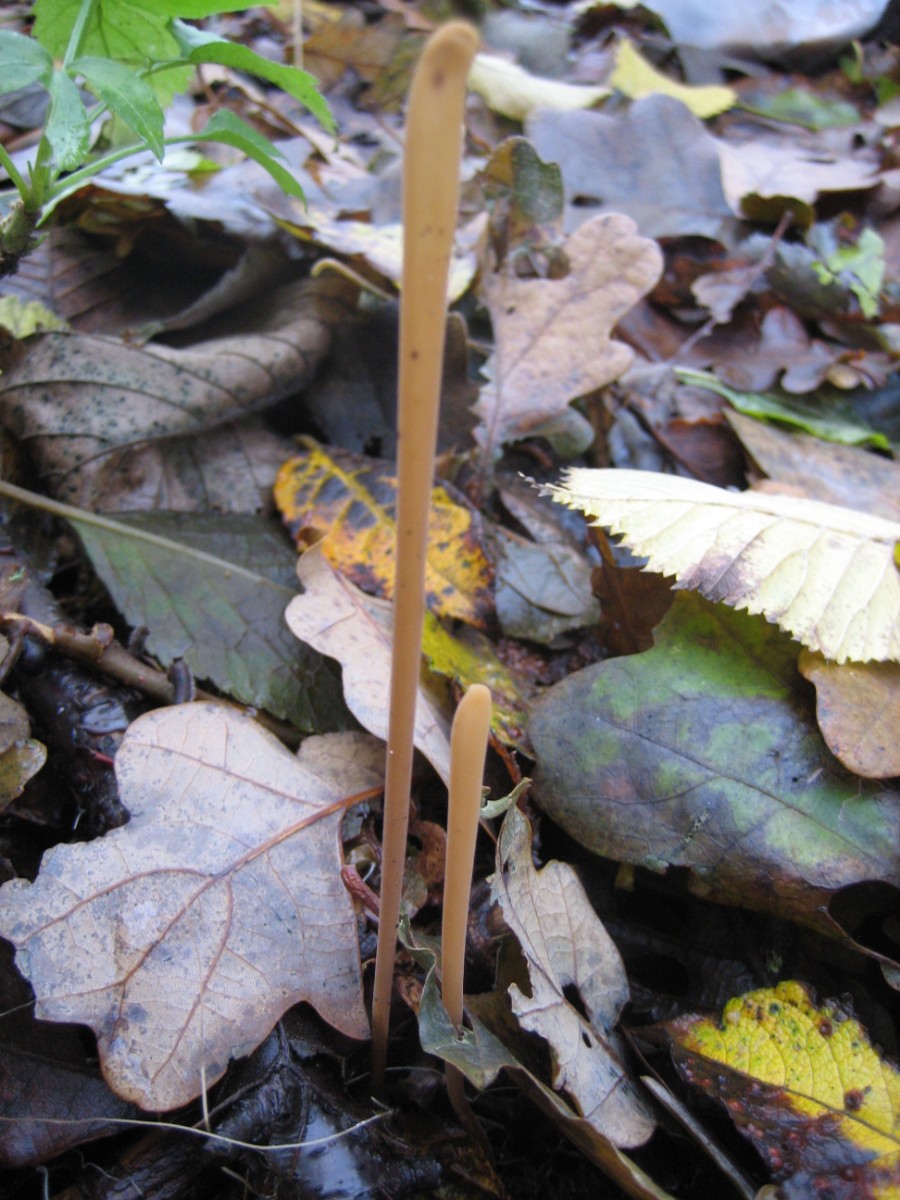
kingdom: Fungi
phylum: Basidiomycota
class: Agaricomycetes
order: Agaricales
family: Typhulaceae
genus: Typhula
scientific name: Typhula fistulosa
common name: pibet rørkølle
